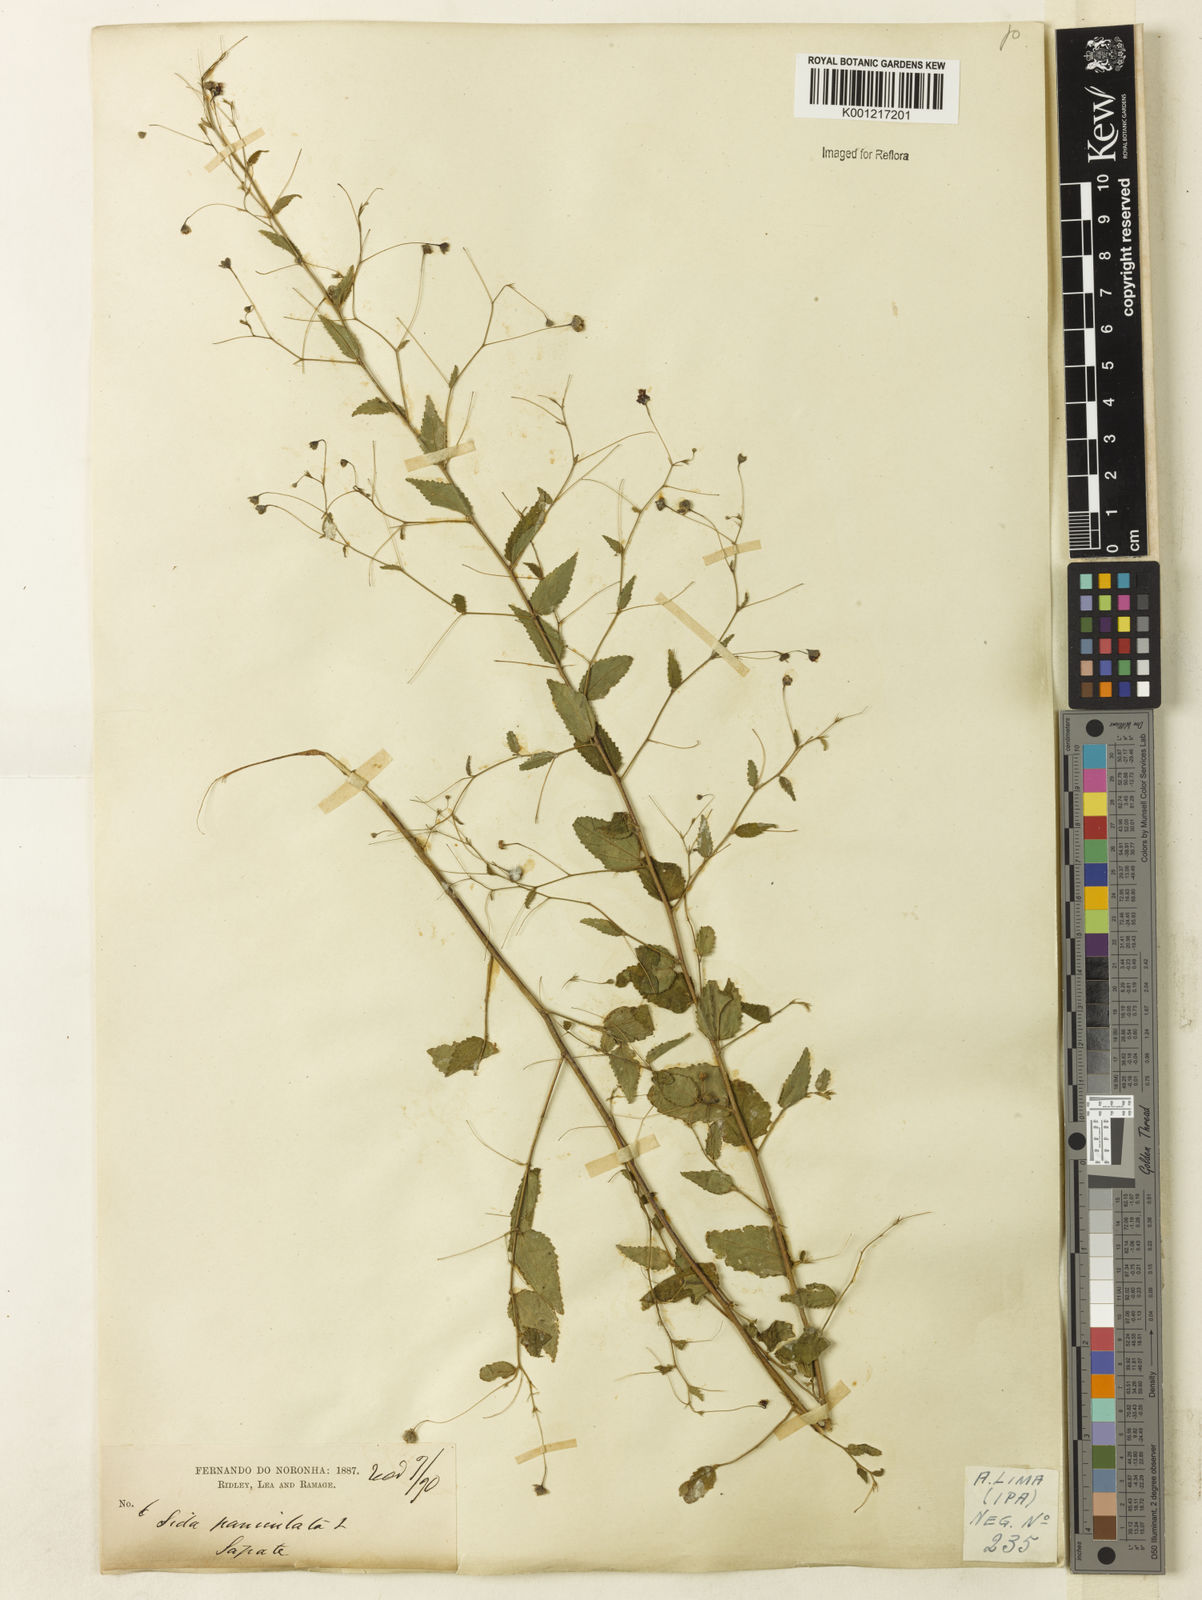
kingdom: Plantae
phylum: Tracheophyta
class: Magnoliopsida
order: Malvales
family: Malvaceae
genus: Sidastrum
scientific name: Sidastrum paniculatum
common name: Panicled sandmallow
